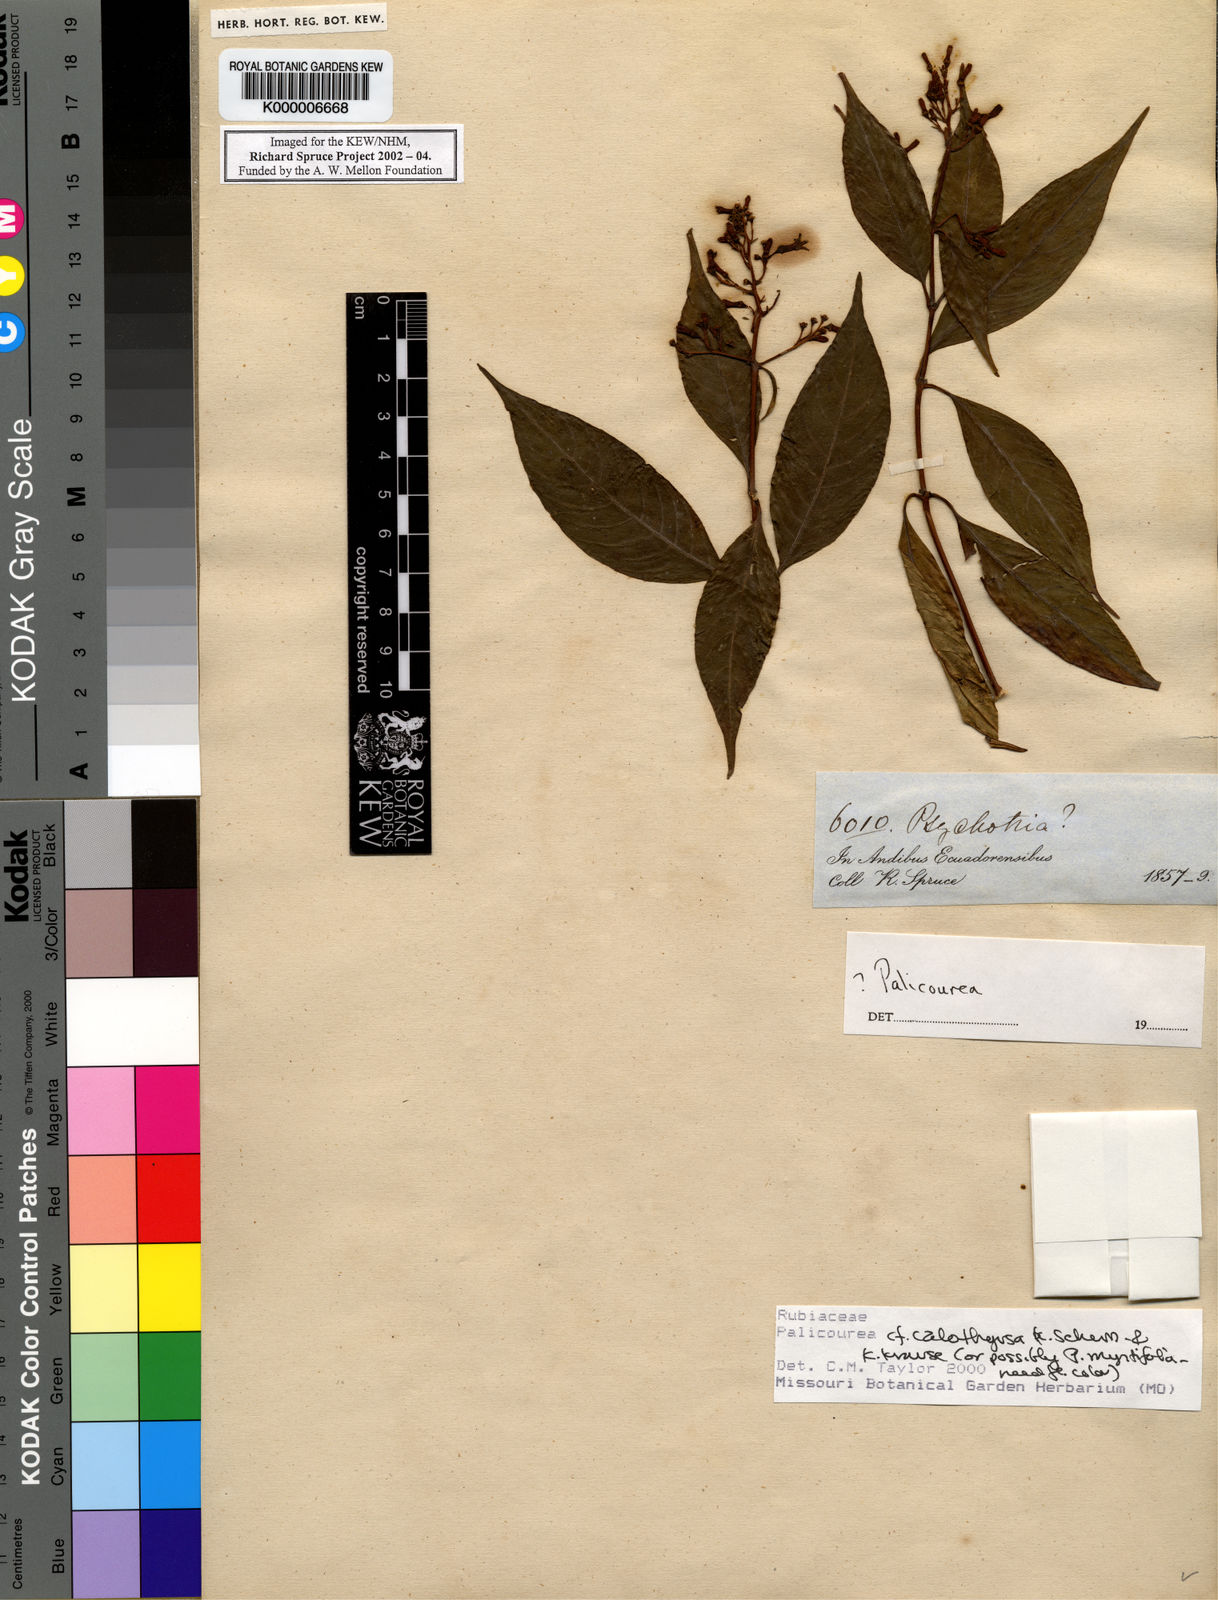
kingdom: Plantae
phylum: Tracheophyta
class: Magnoliopsida
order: Gentianales
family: Rubiaceae
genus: Palicourea
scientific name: Palicourea calothyrsus
